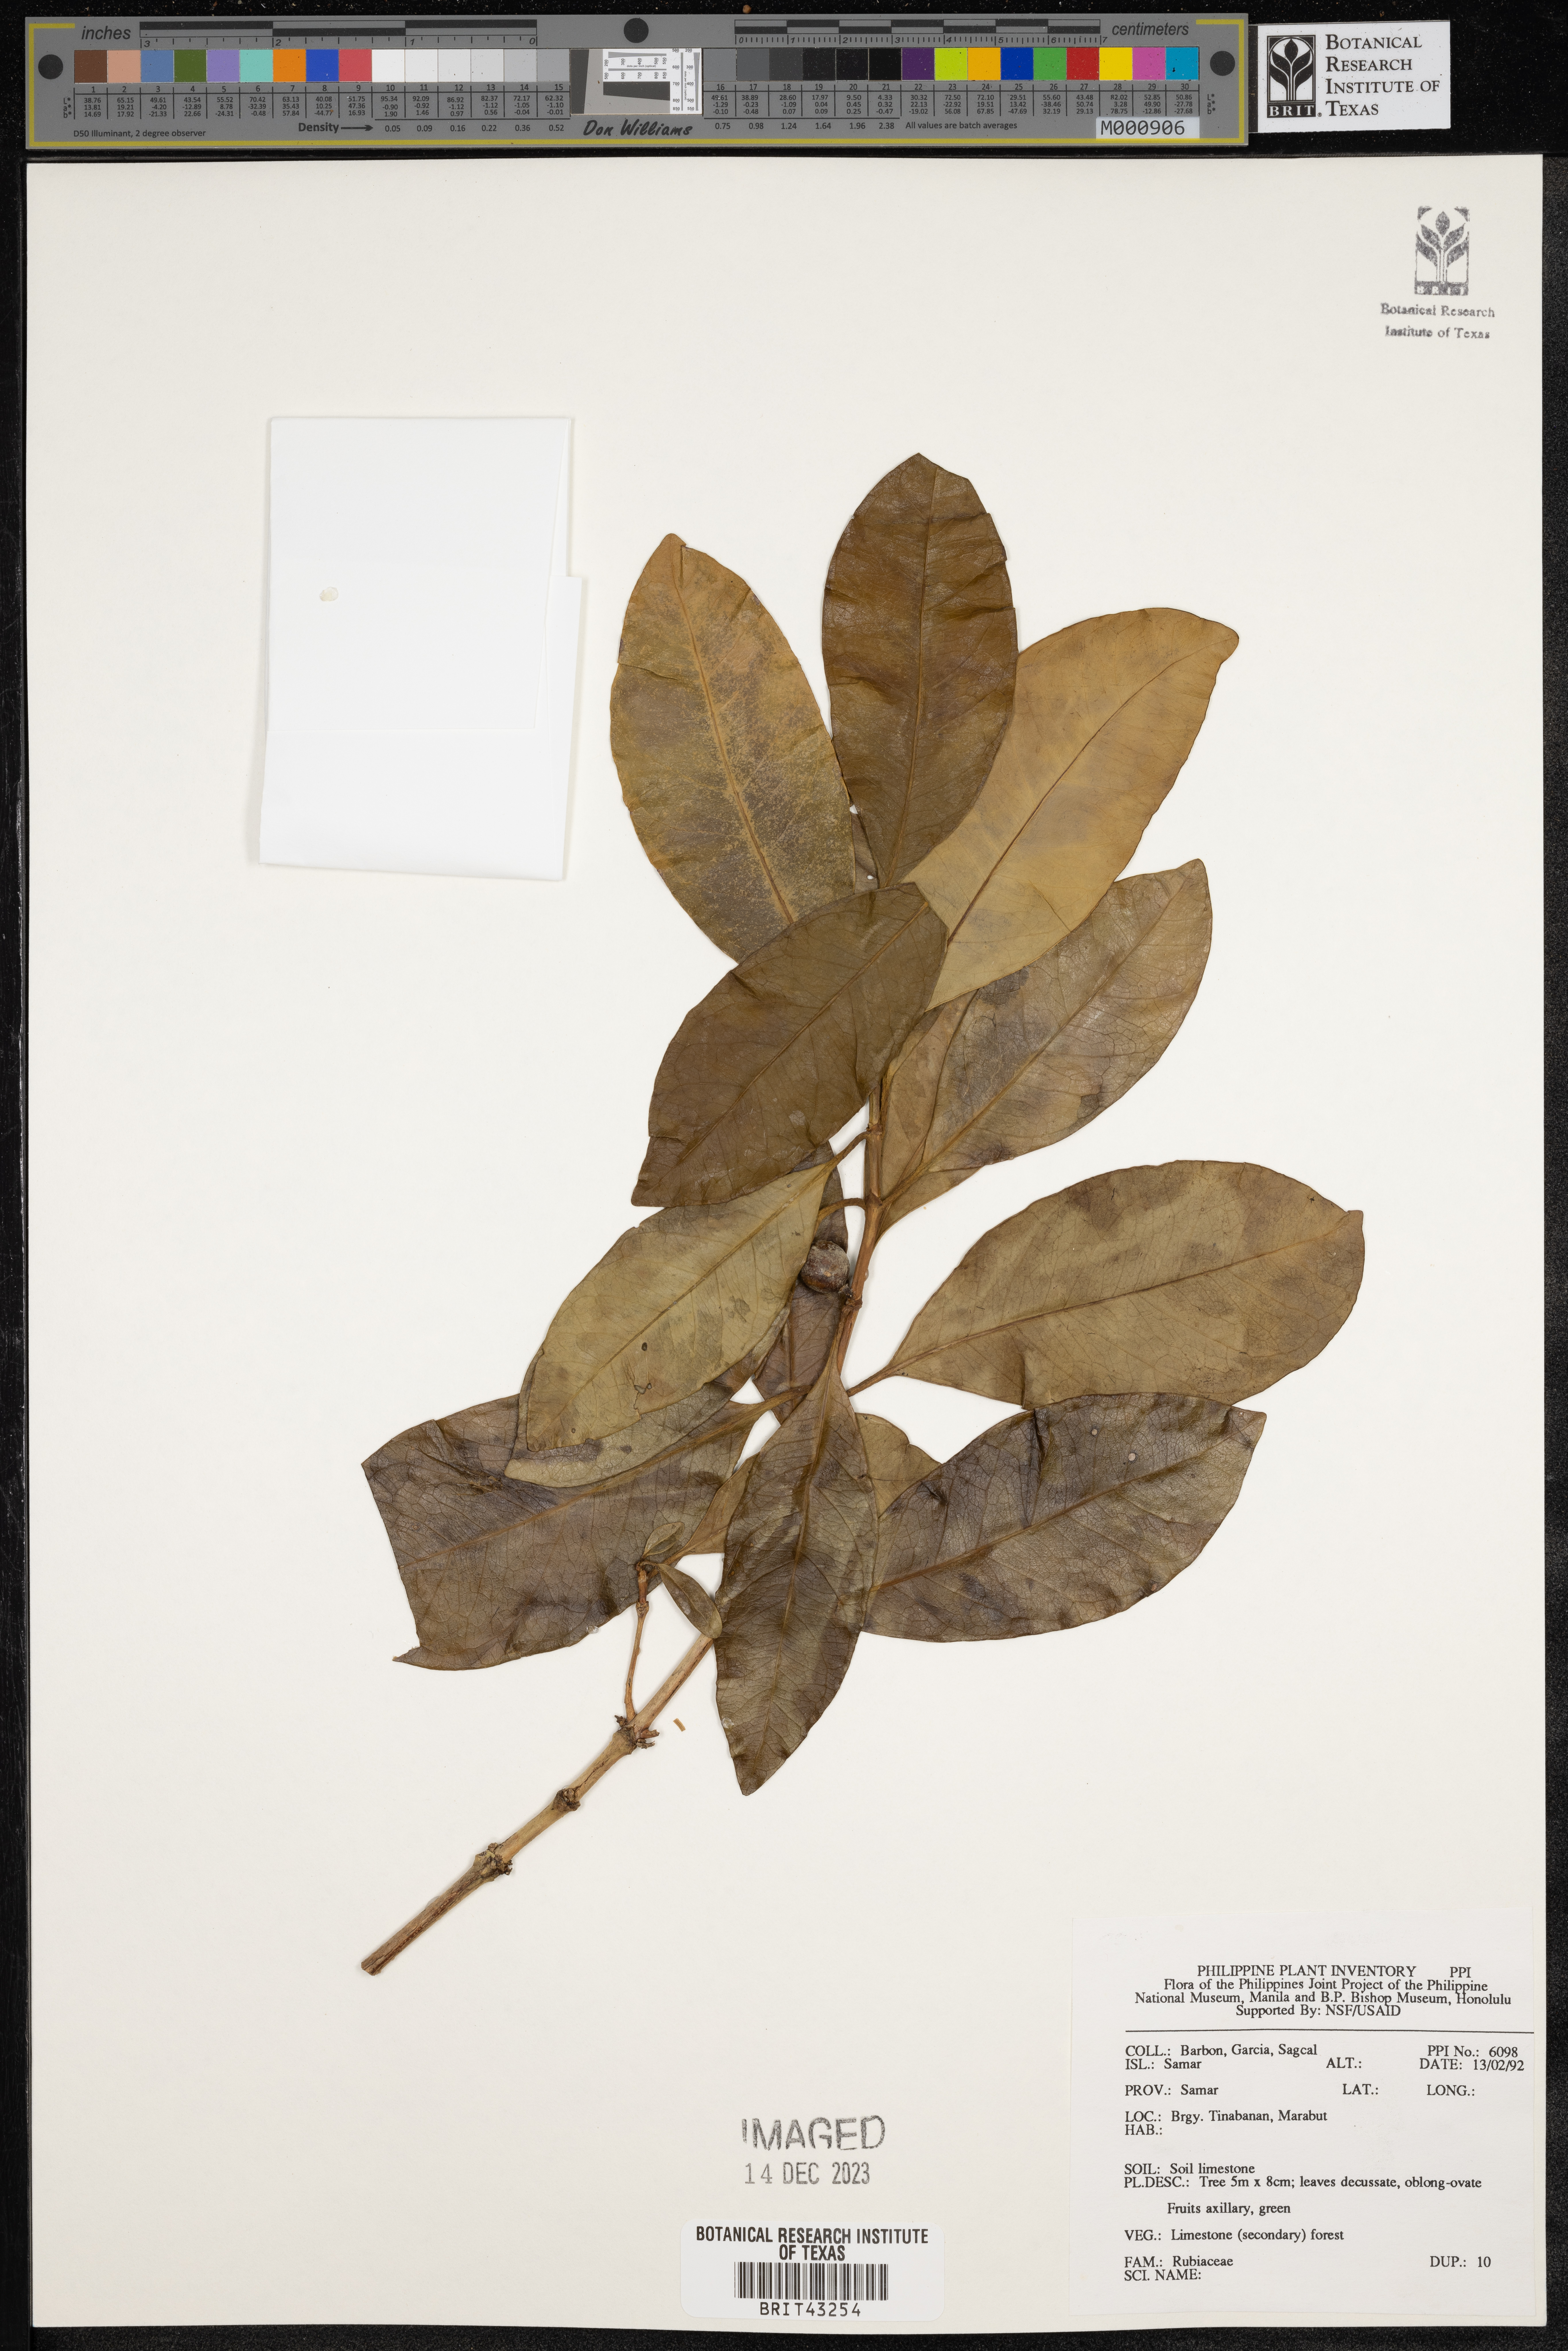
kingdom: Plantae
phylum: Tracheophyta
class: Magnoliopsida
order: Gentianales
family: Rubiaceae
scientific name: Rubiaceae
